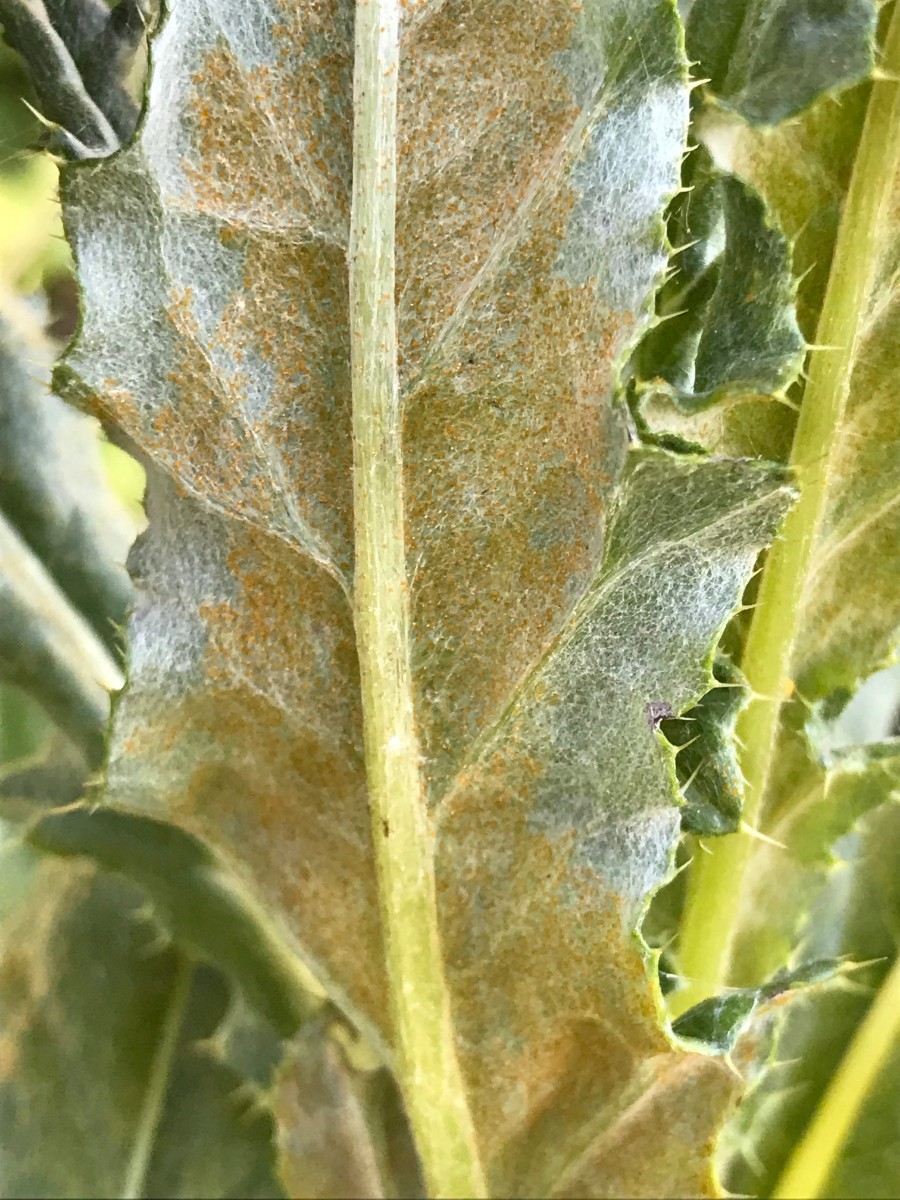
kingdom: Fungi
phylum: Basidiomycota
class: Pucciniomycetes
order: Pucciniales
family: Pucciniaceae
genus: Puccinia
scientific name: Puccinia suaveolens
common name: tidsel-tvecellerust
